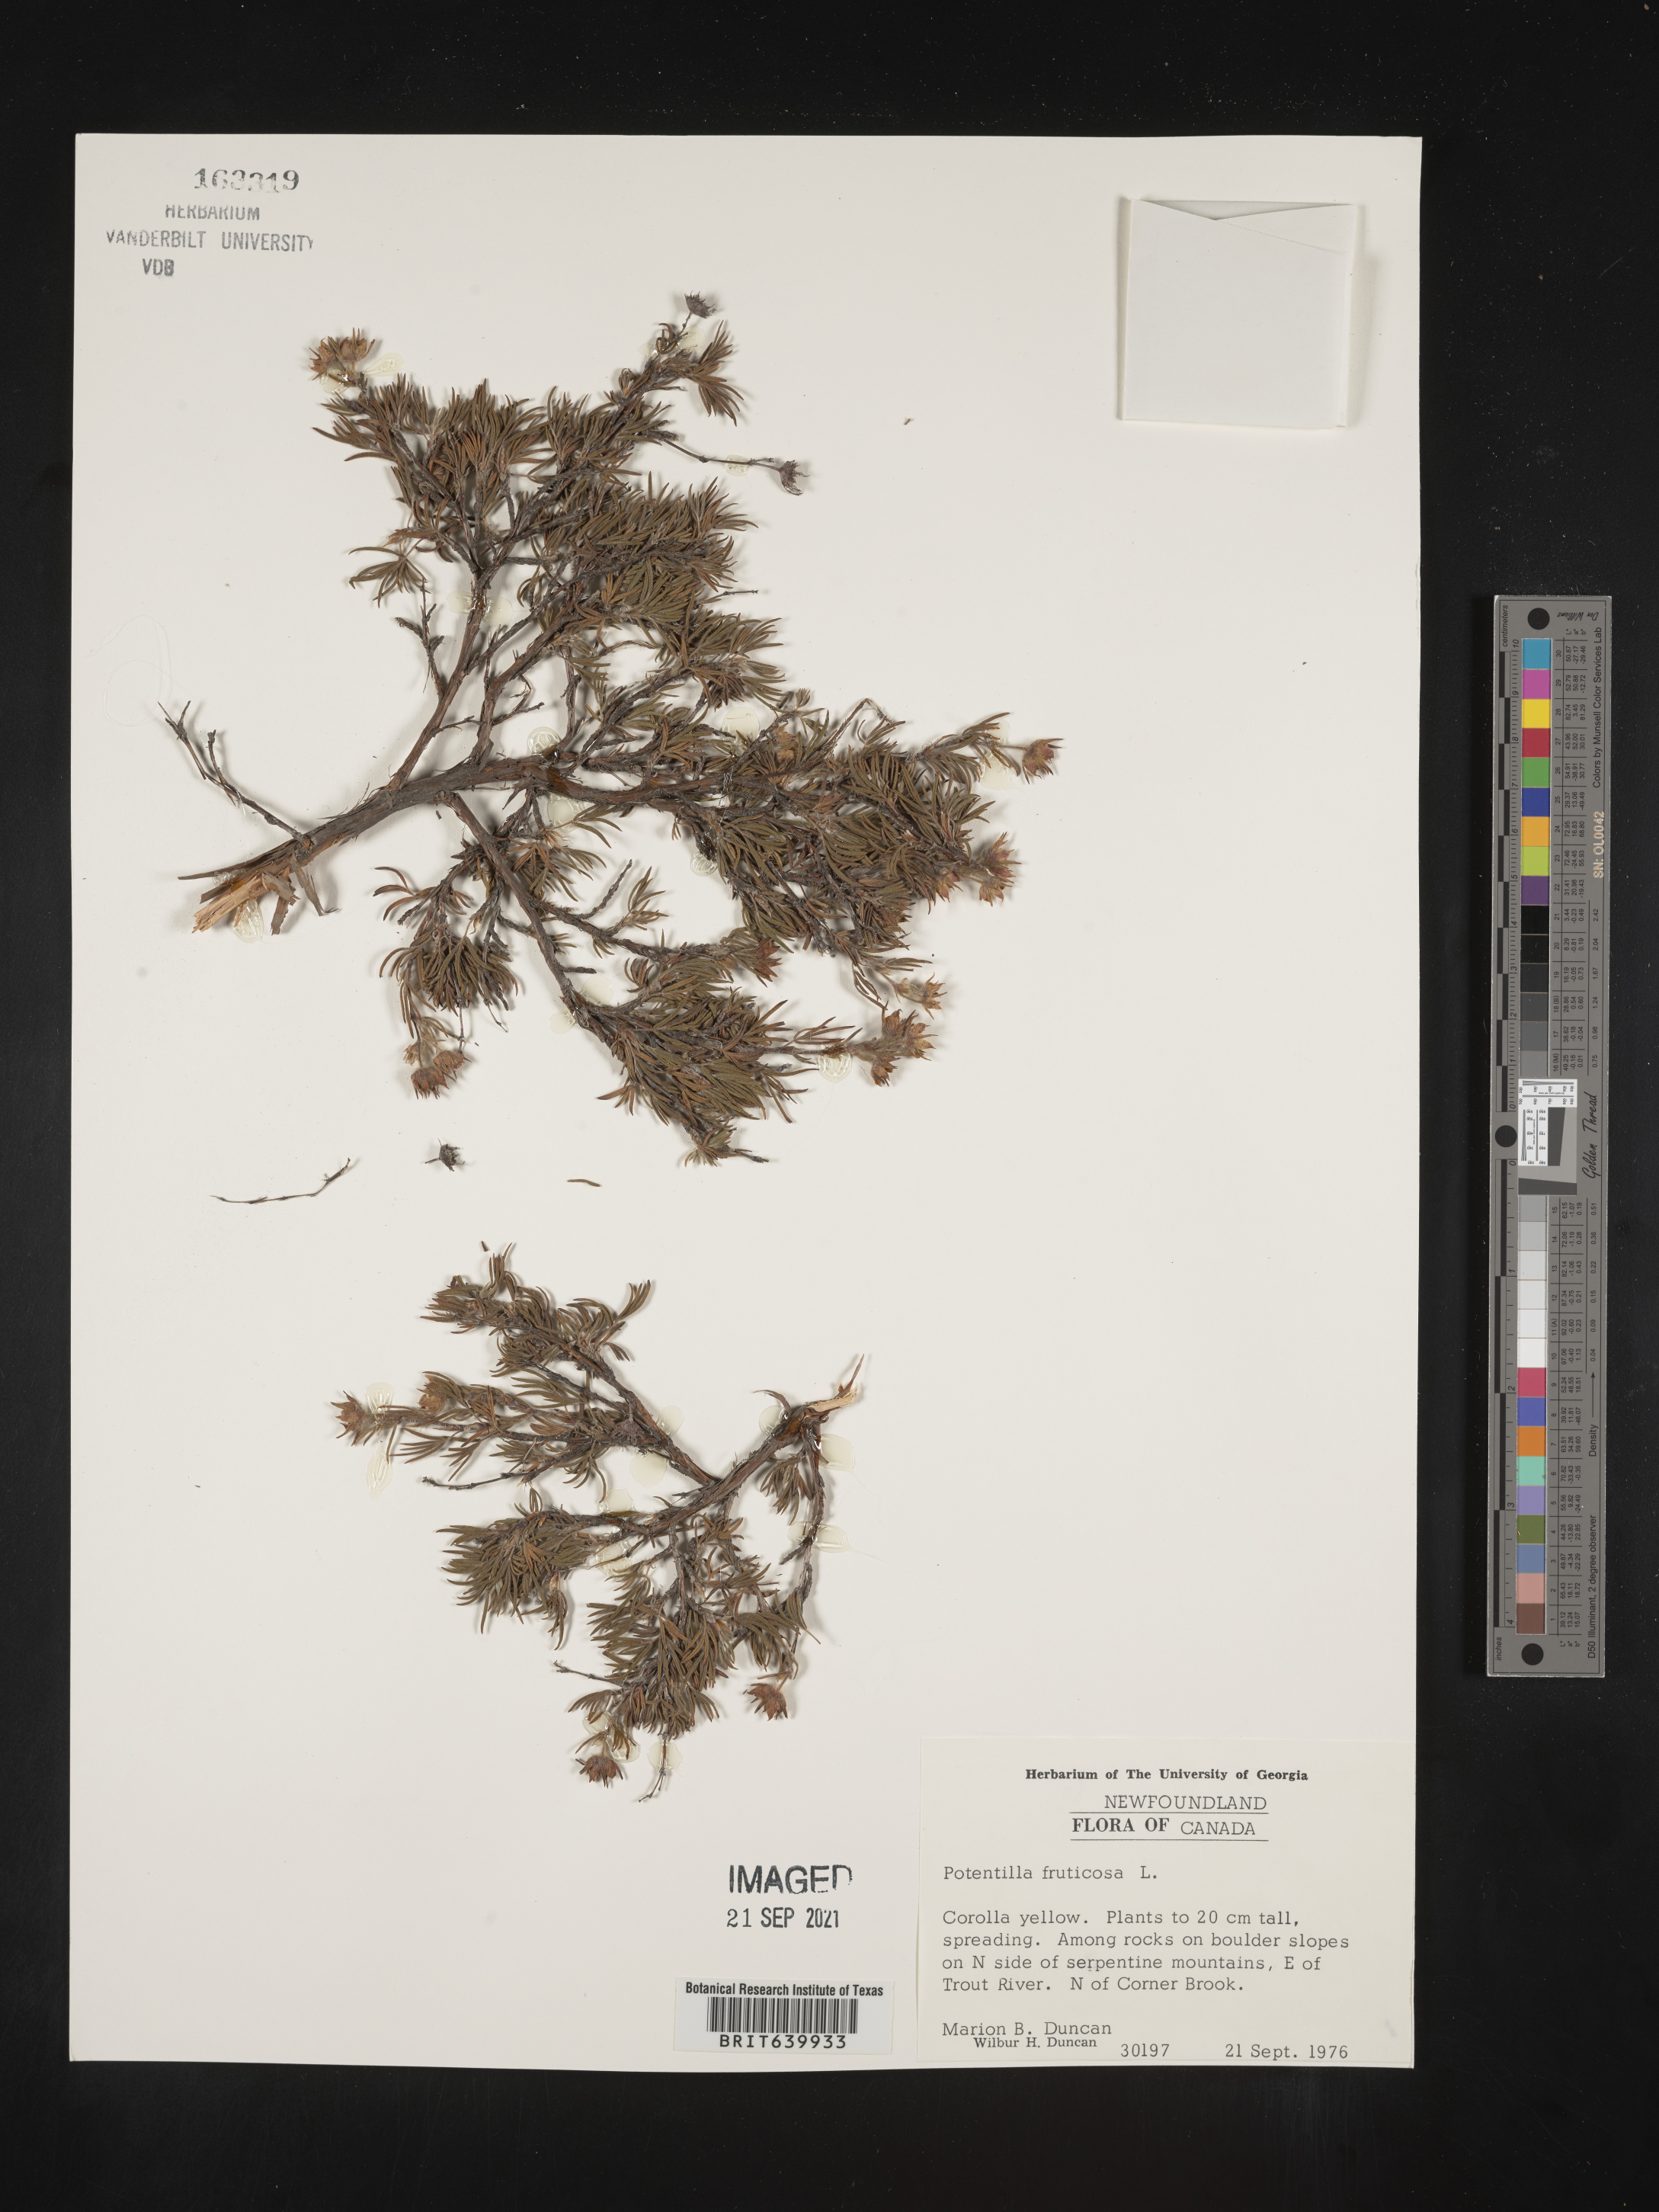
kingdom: Plantae
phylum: Tracheophyta
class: Magnoliopsida
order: Rosales
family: Rosaceae
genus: Potentilla
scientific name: Potentilla
